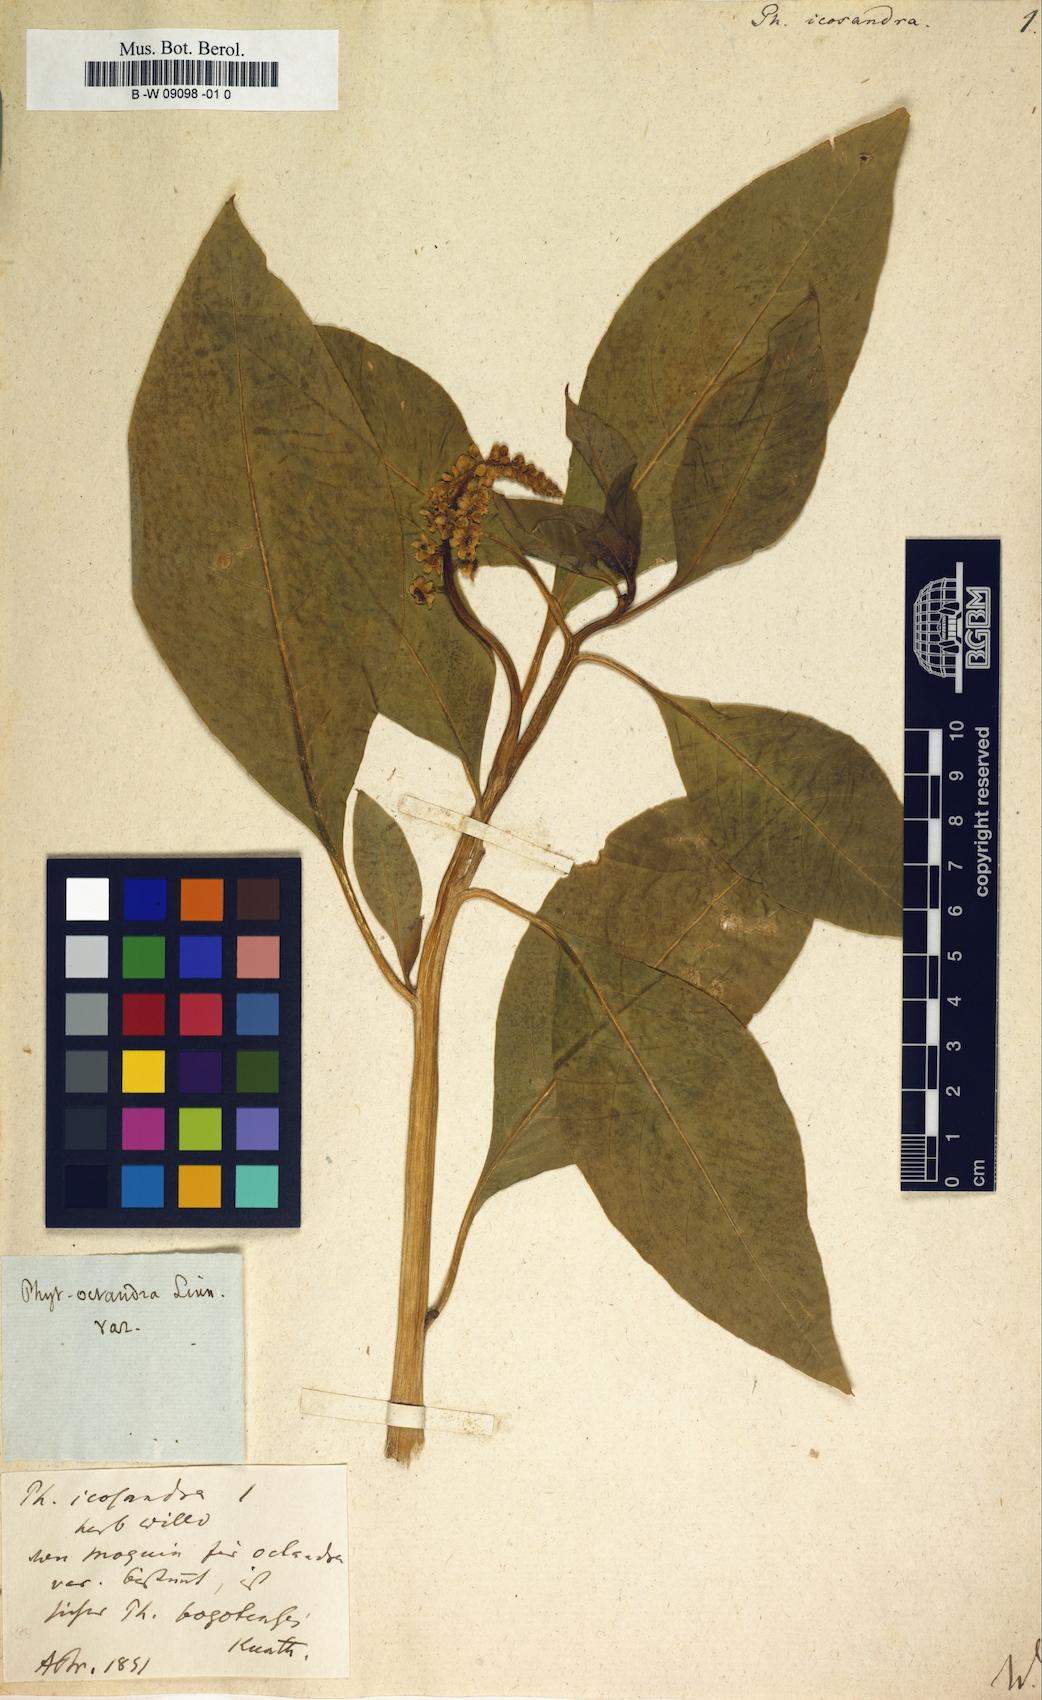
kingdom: Plantae
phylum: Tracheophyta
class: Magnoliopsida
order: Caryophyllales
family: Phytolaccaceae
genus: Phytolacca
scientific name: Phytolacca icosandra
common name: Button pokeweed
